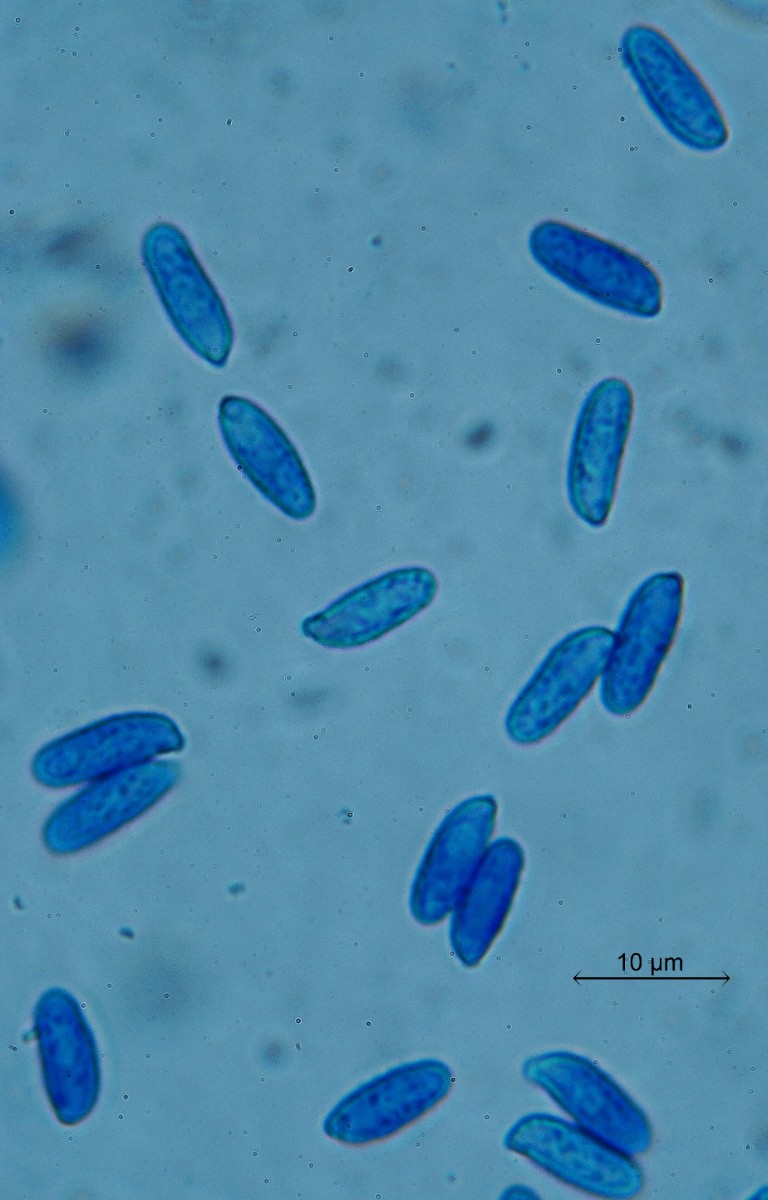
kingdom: Fungi
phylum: Basidiomycota
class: Agaricomycetes
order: Gomphales
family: Gomphaceae
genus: Ramaria
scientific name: Ramaria fagetorum
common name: abrikos-koralsvamp
